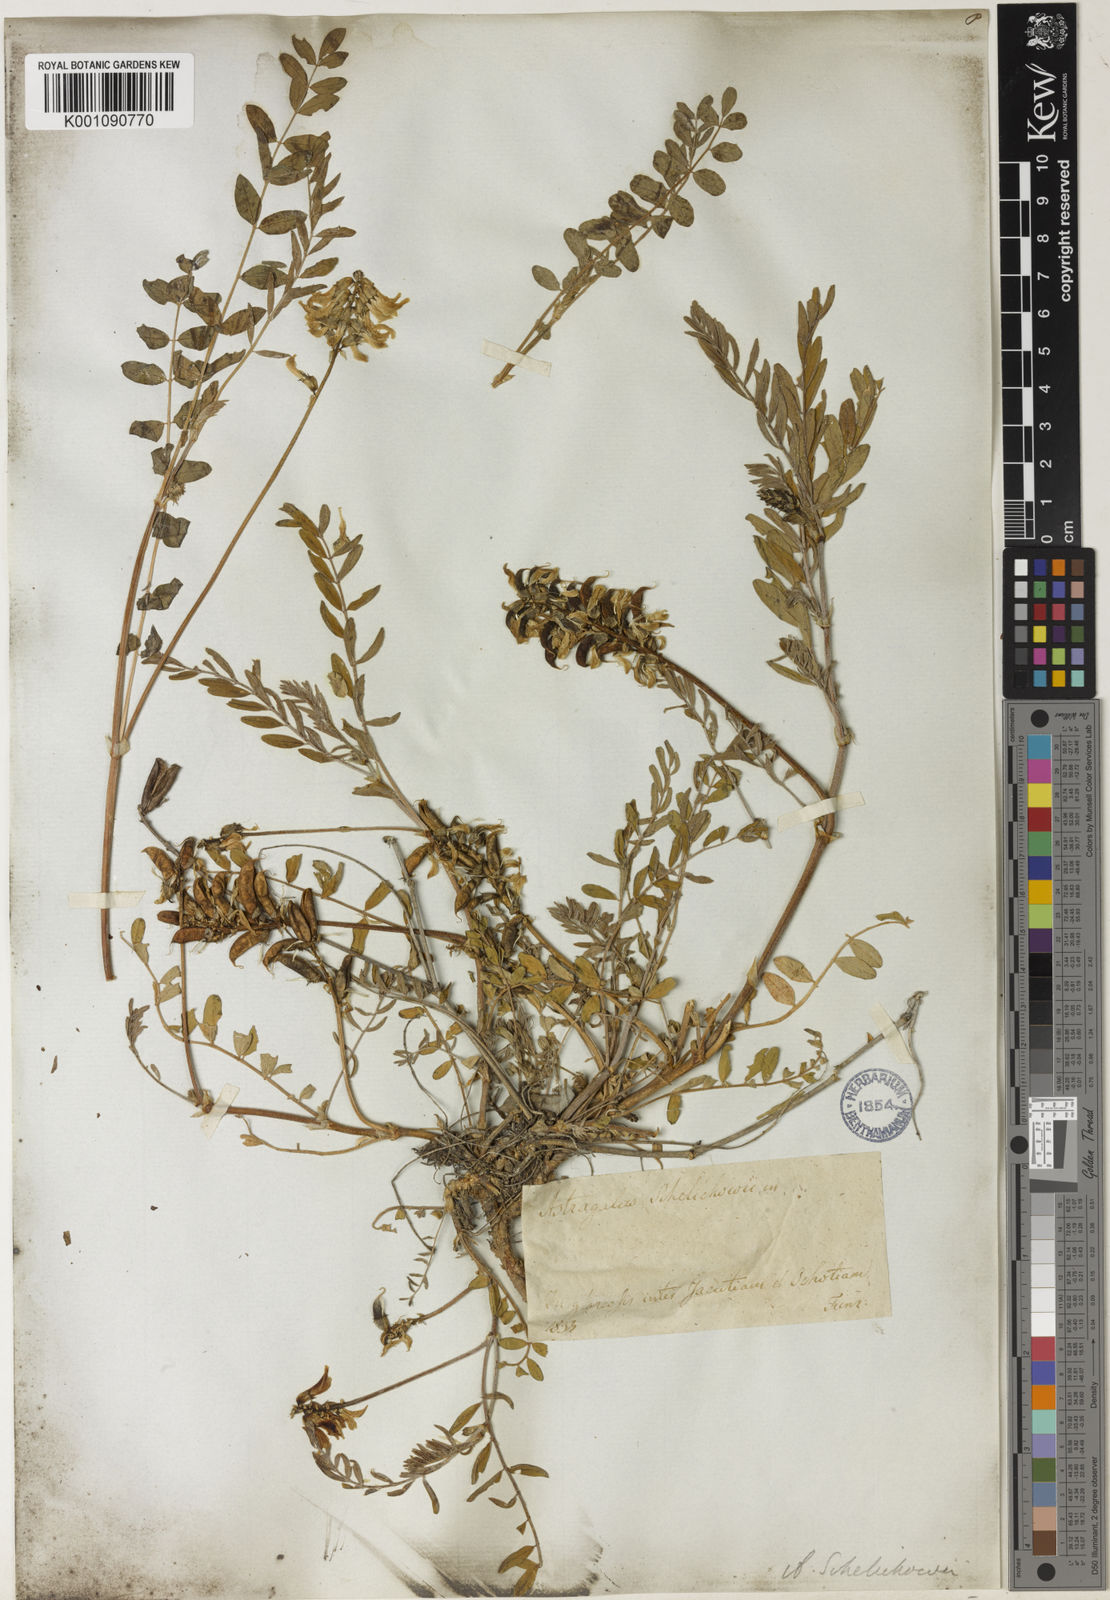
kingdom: Plantae
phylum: Tracheophyta
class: Magnoliopsida
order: Fabales
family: Fabaceae
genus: Astragalus
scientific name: Astragalus
